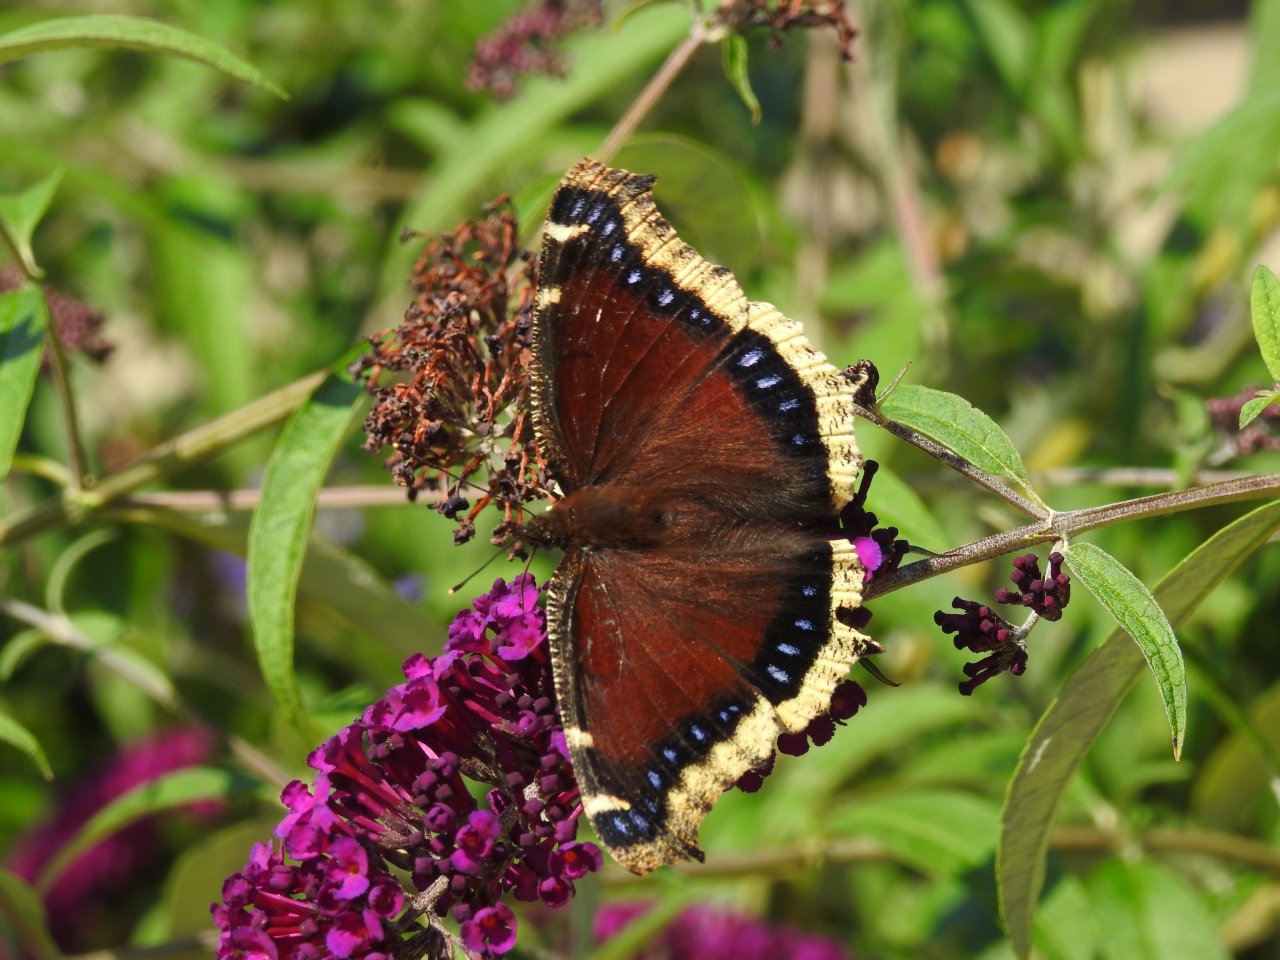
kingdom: Animalia
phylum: Arthropoda
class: Insecta
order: Lepidoptera
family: Nymphalidae
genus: Nymphalis
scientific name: Nymphalis antiopa
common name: Mourning Cloak
